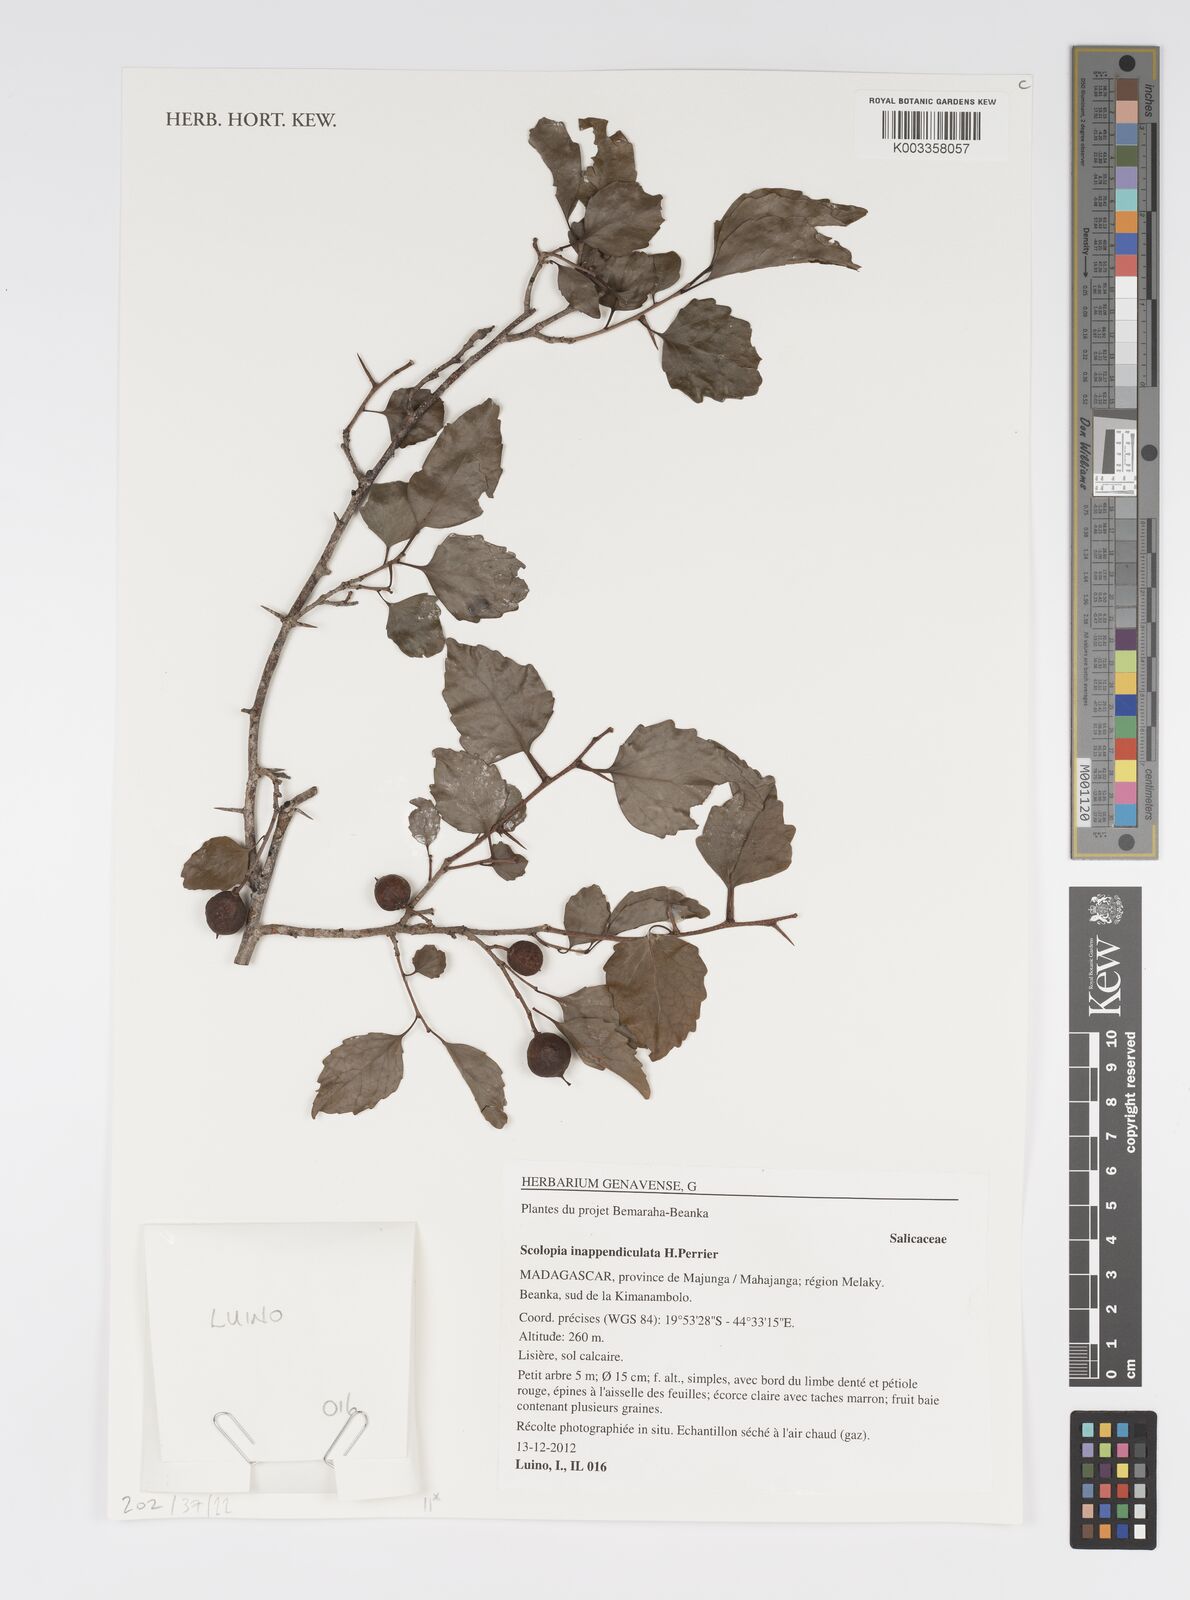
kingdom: Plantae
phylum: Tracheophyta
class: Magnoliopsida
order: Malpighiales
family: Salicaceae
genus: Scolopia
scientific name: Scolopia inappendiculata
